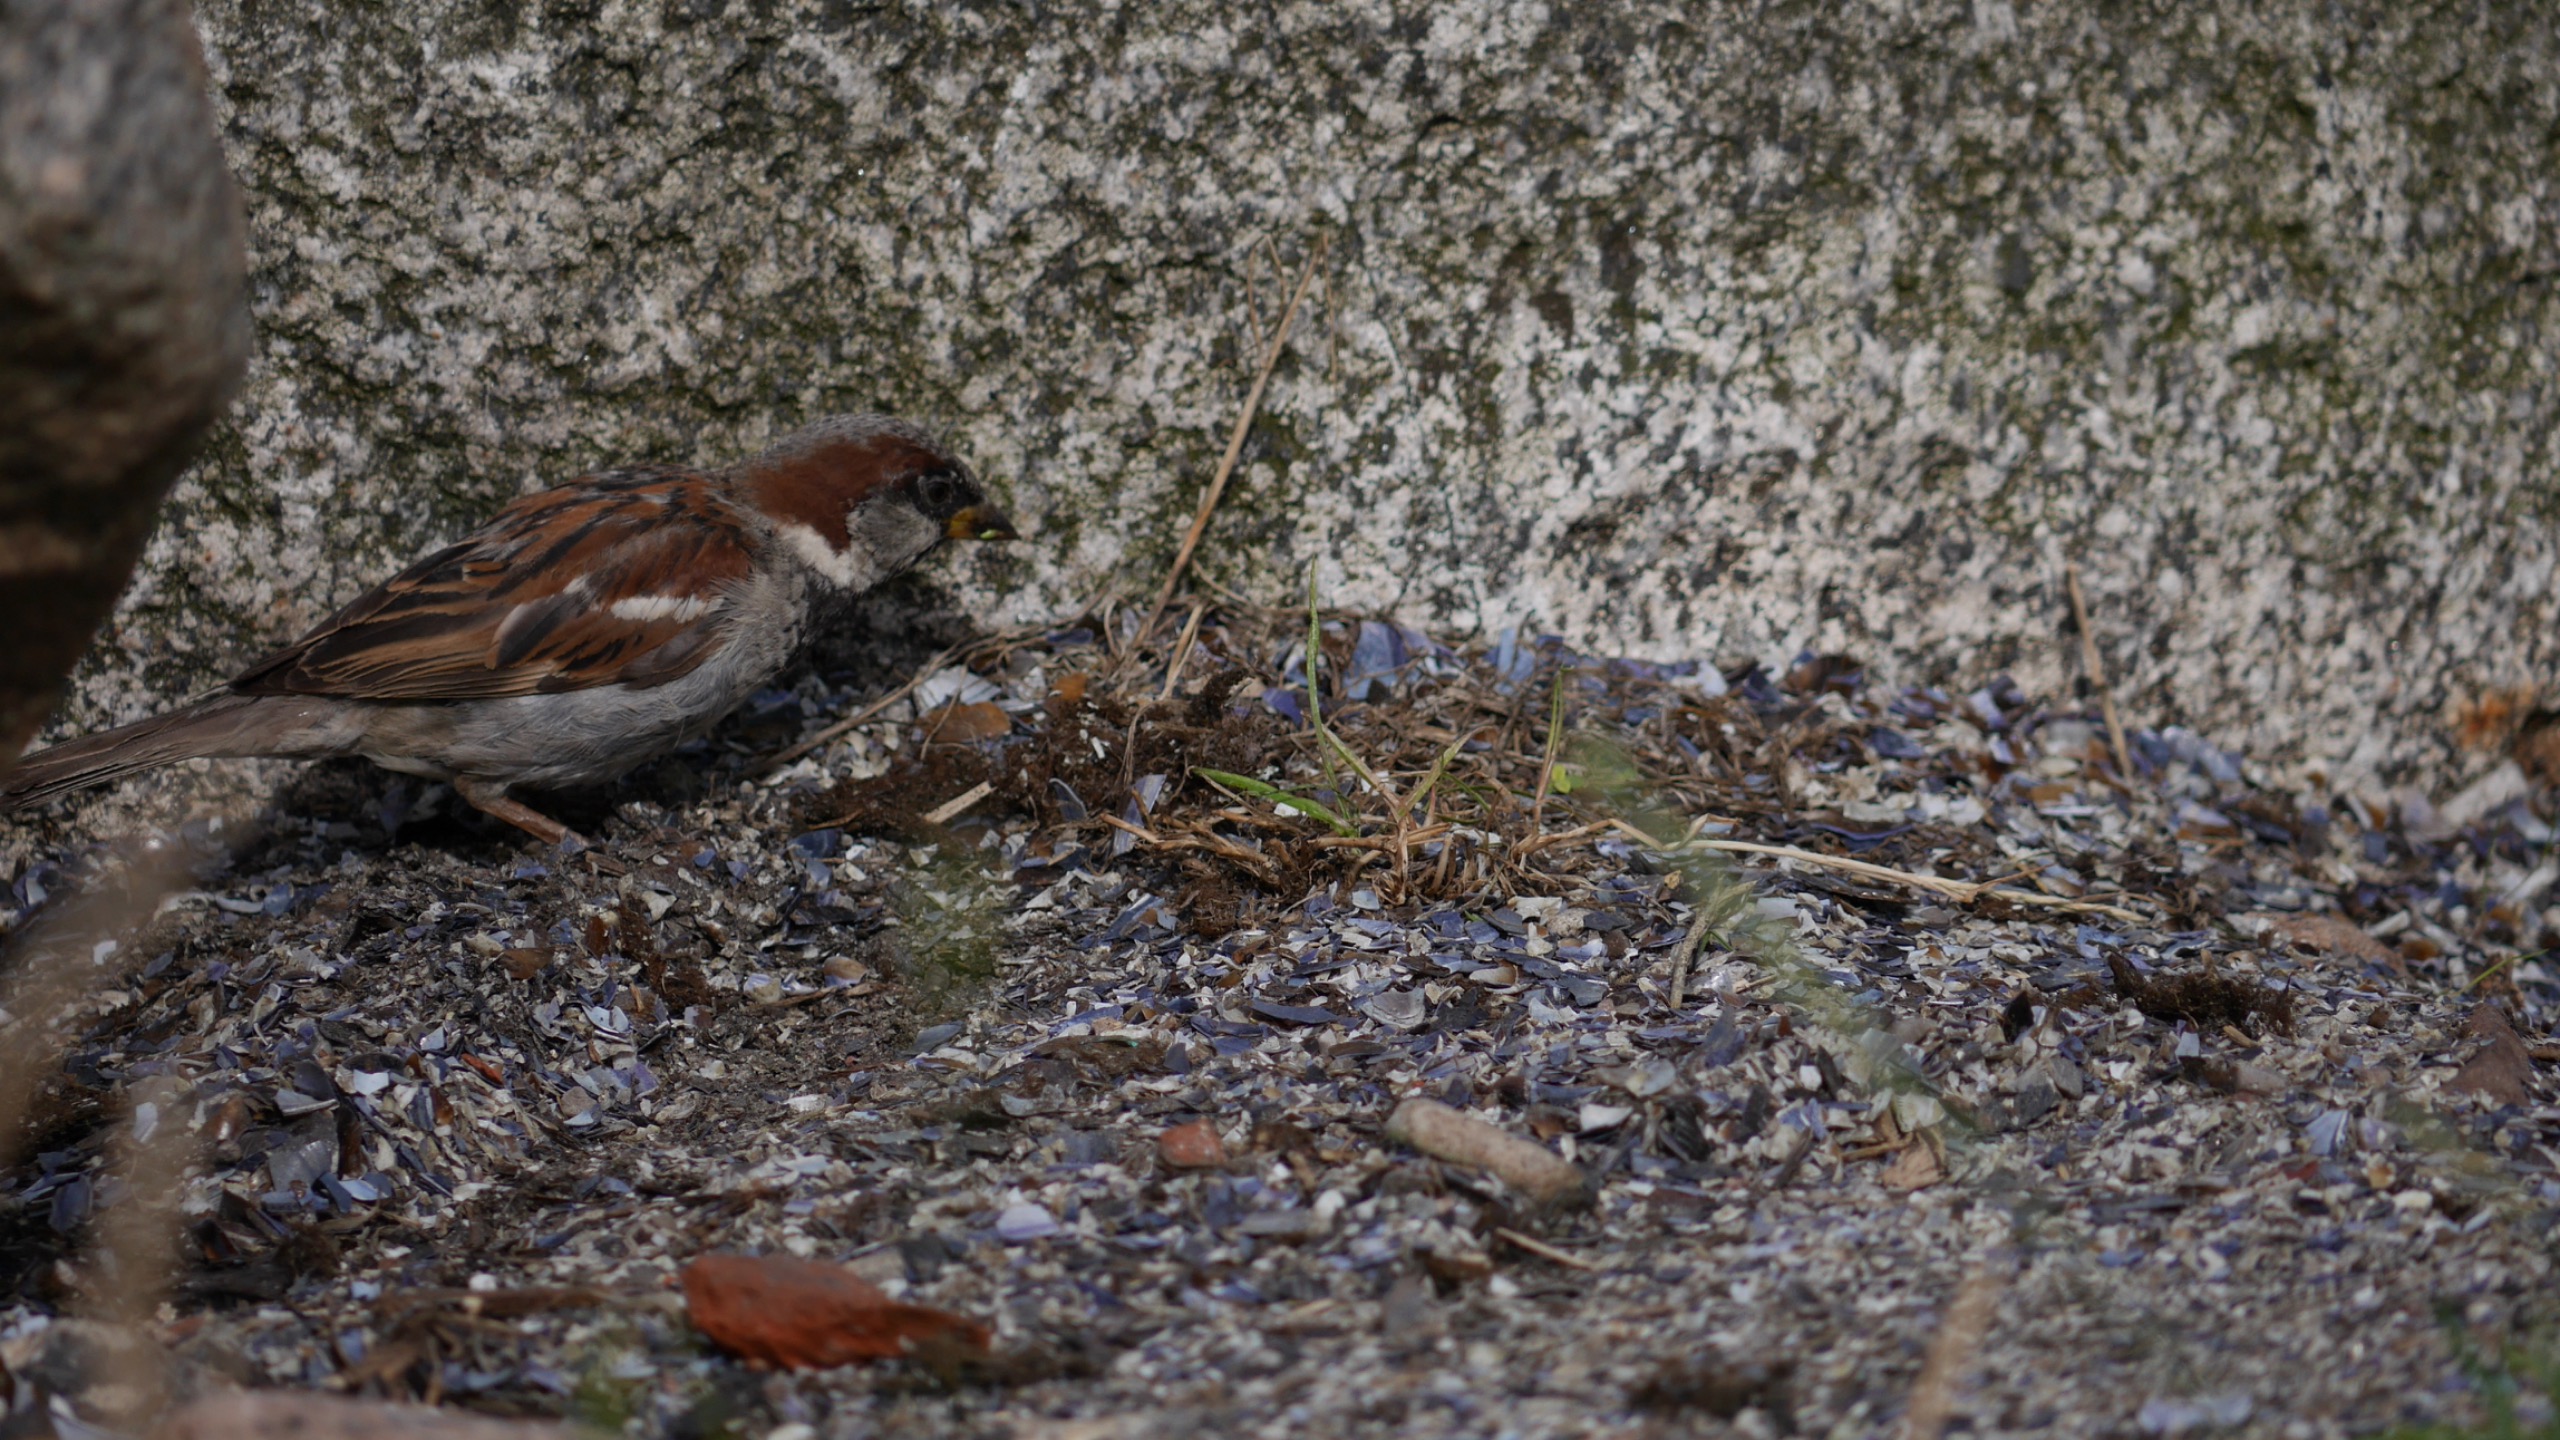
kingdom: Animalia
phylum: Chordata
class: Aves
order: Passeriformes
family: Passeridae
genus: Passer
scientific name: Passer domesticus
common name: Gråspurv
